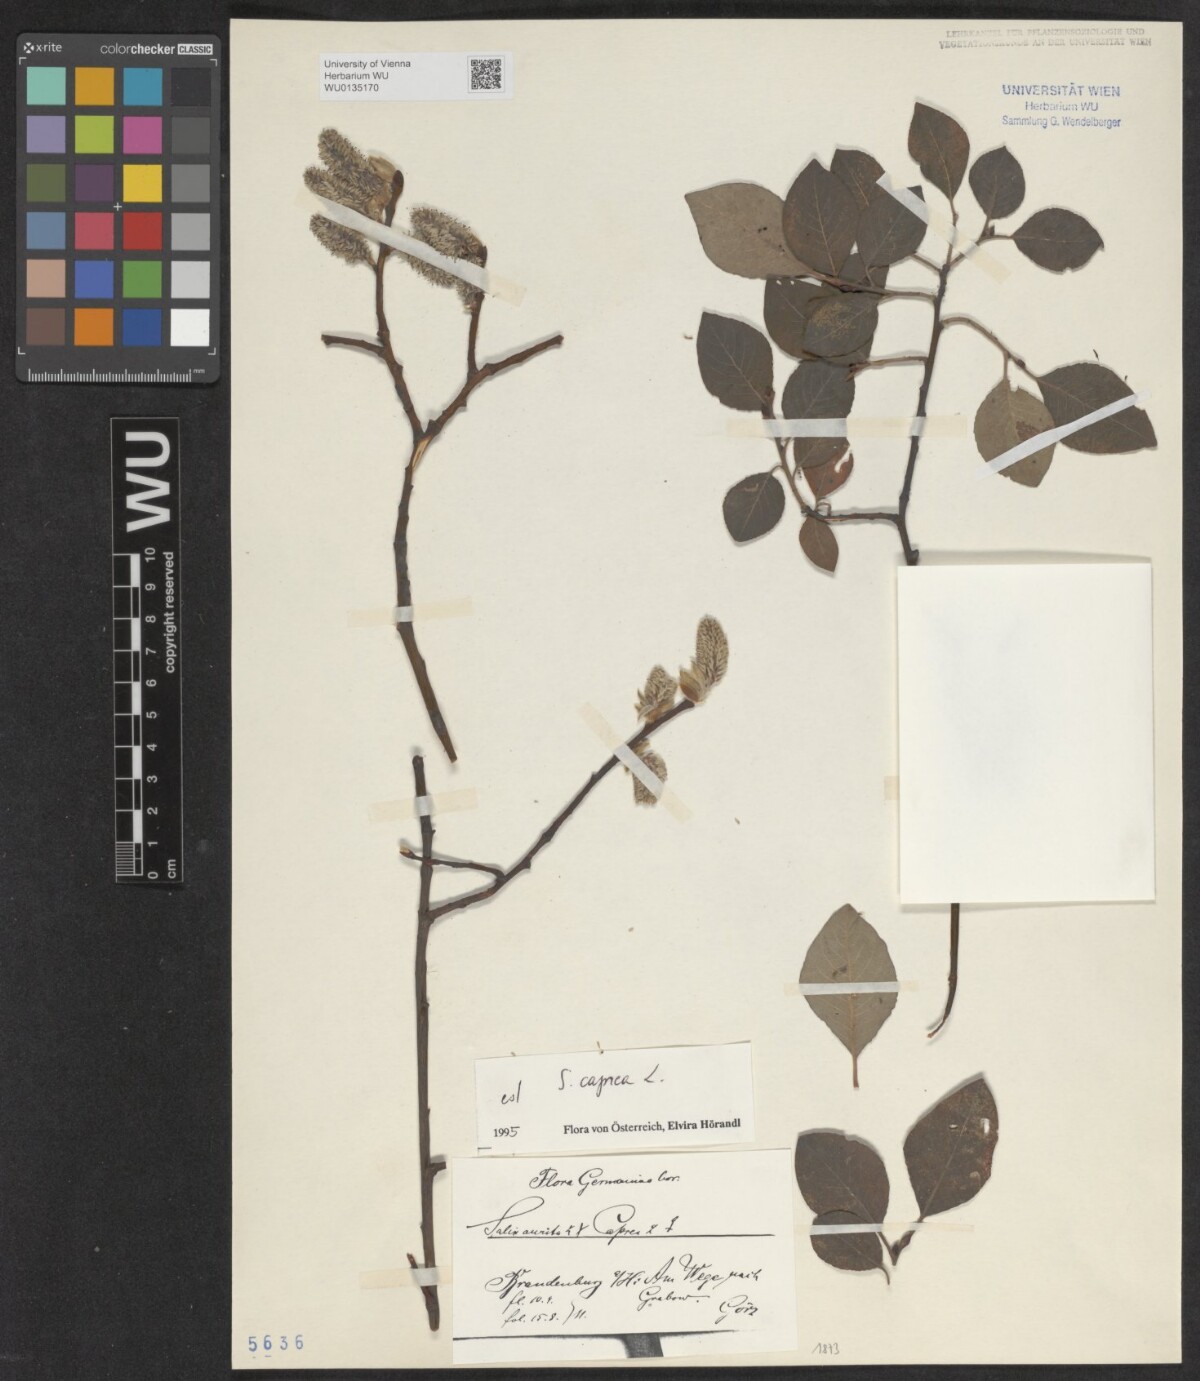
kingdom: Plantae
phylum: Tracheophyta
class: Magnoliopsida
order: Malpighiales
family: Salicaceae
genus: Salix
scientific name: Salix caprea
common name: Goat willow
